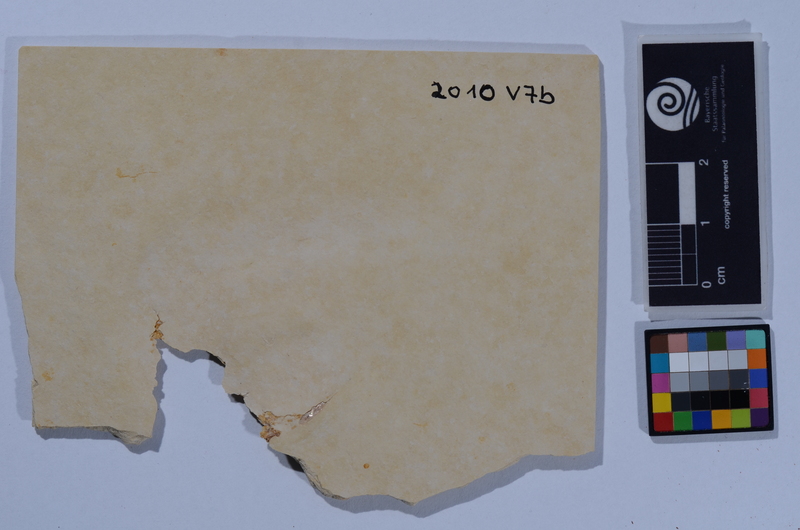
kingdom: Animalia
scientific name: Animalia
